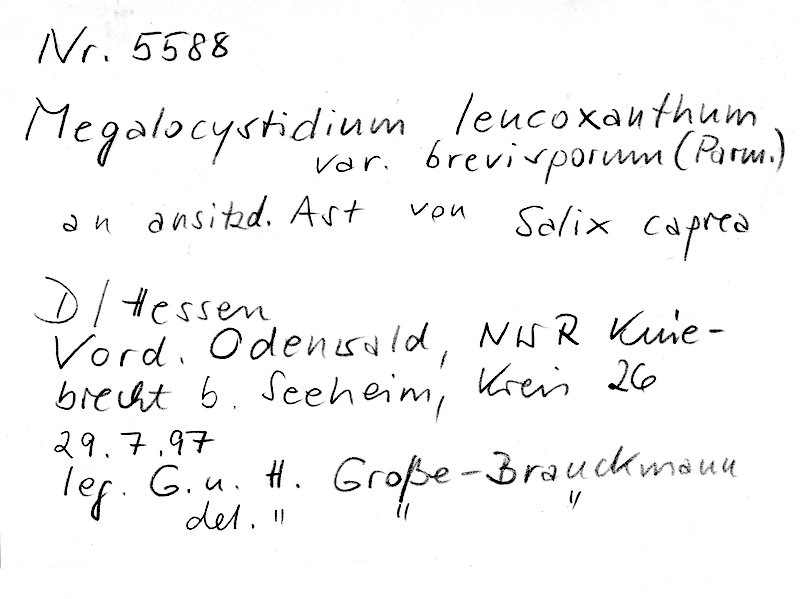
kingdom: Plantae
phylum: Tracheophyta
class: Magnoliopsida
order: Malpighiales
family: Salicaceae
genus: Salix
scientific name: Salix caprea
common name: Goat willow
